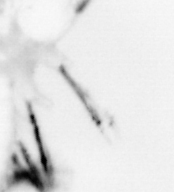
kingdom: Animalia
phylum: Annelida
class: Polychaeta
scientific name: Polychaeta
